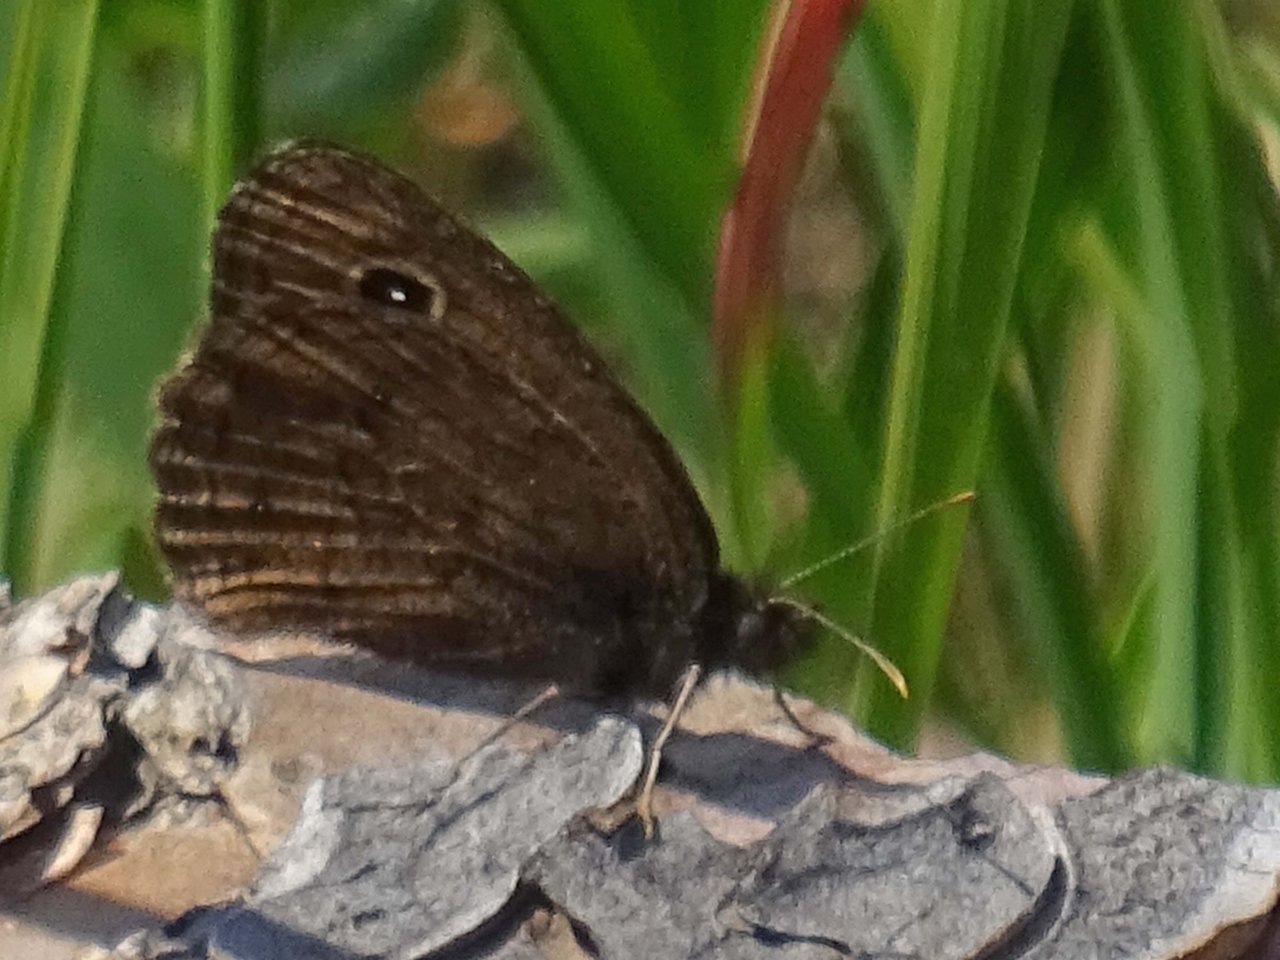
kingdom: Animalia
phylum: Arthropoda
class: Insecta
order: Lepidoptera
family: Nymphalidae
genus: Cercyonis
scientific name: Cercyonis oetus
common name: Small Wood-Nymph
